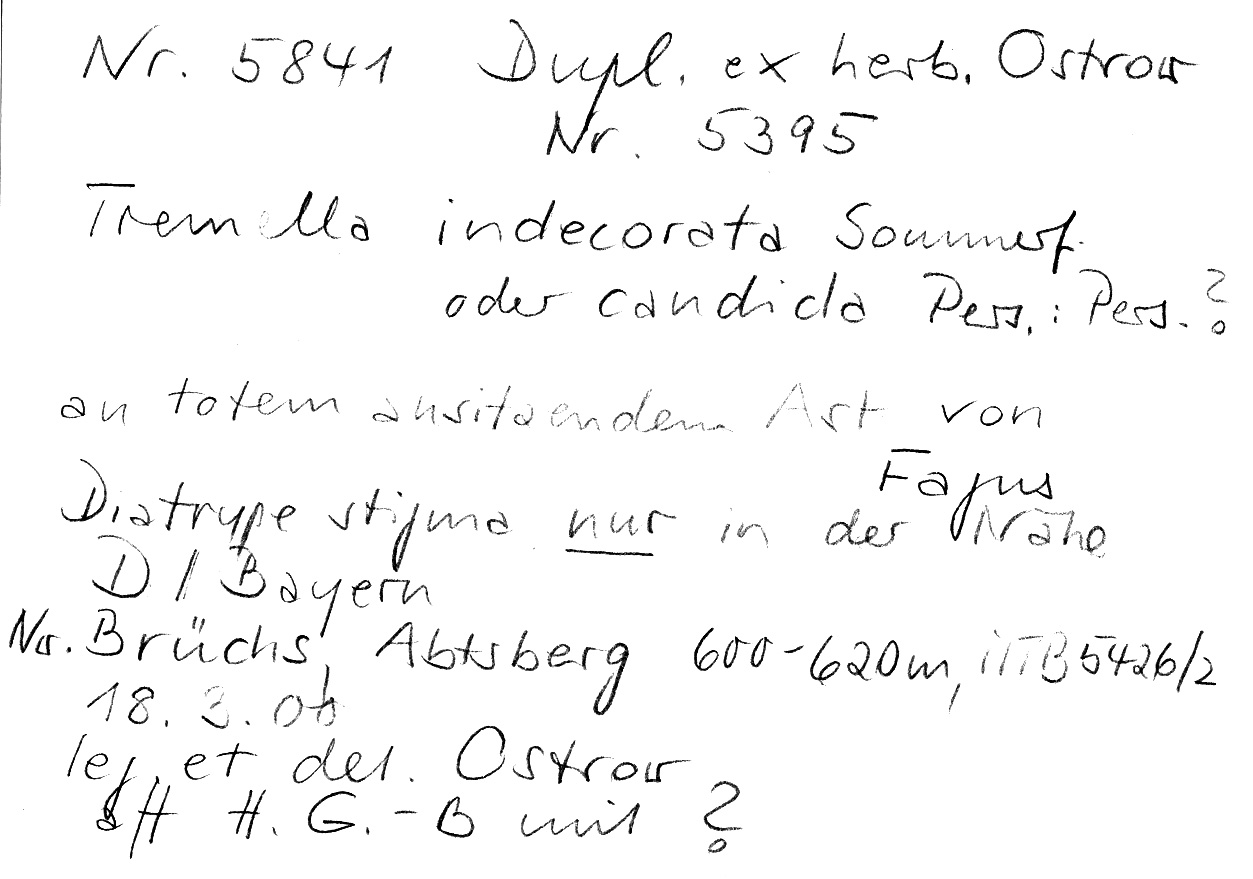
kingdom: Fungi
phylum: Basidiomycota
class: Tremellomycetes
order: Tremellales
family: Tremellaceae
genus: Tremella
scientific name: Tremella indecorata
